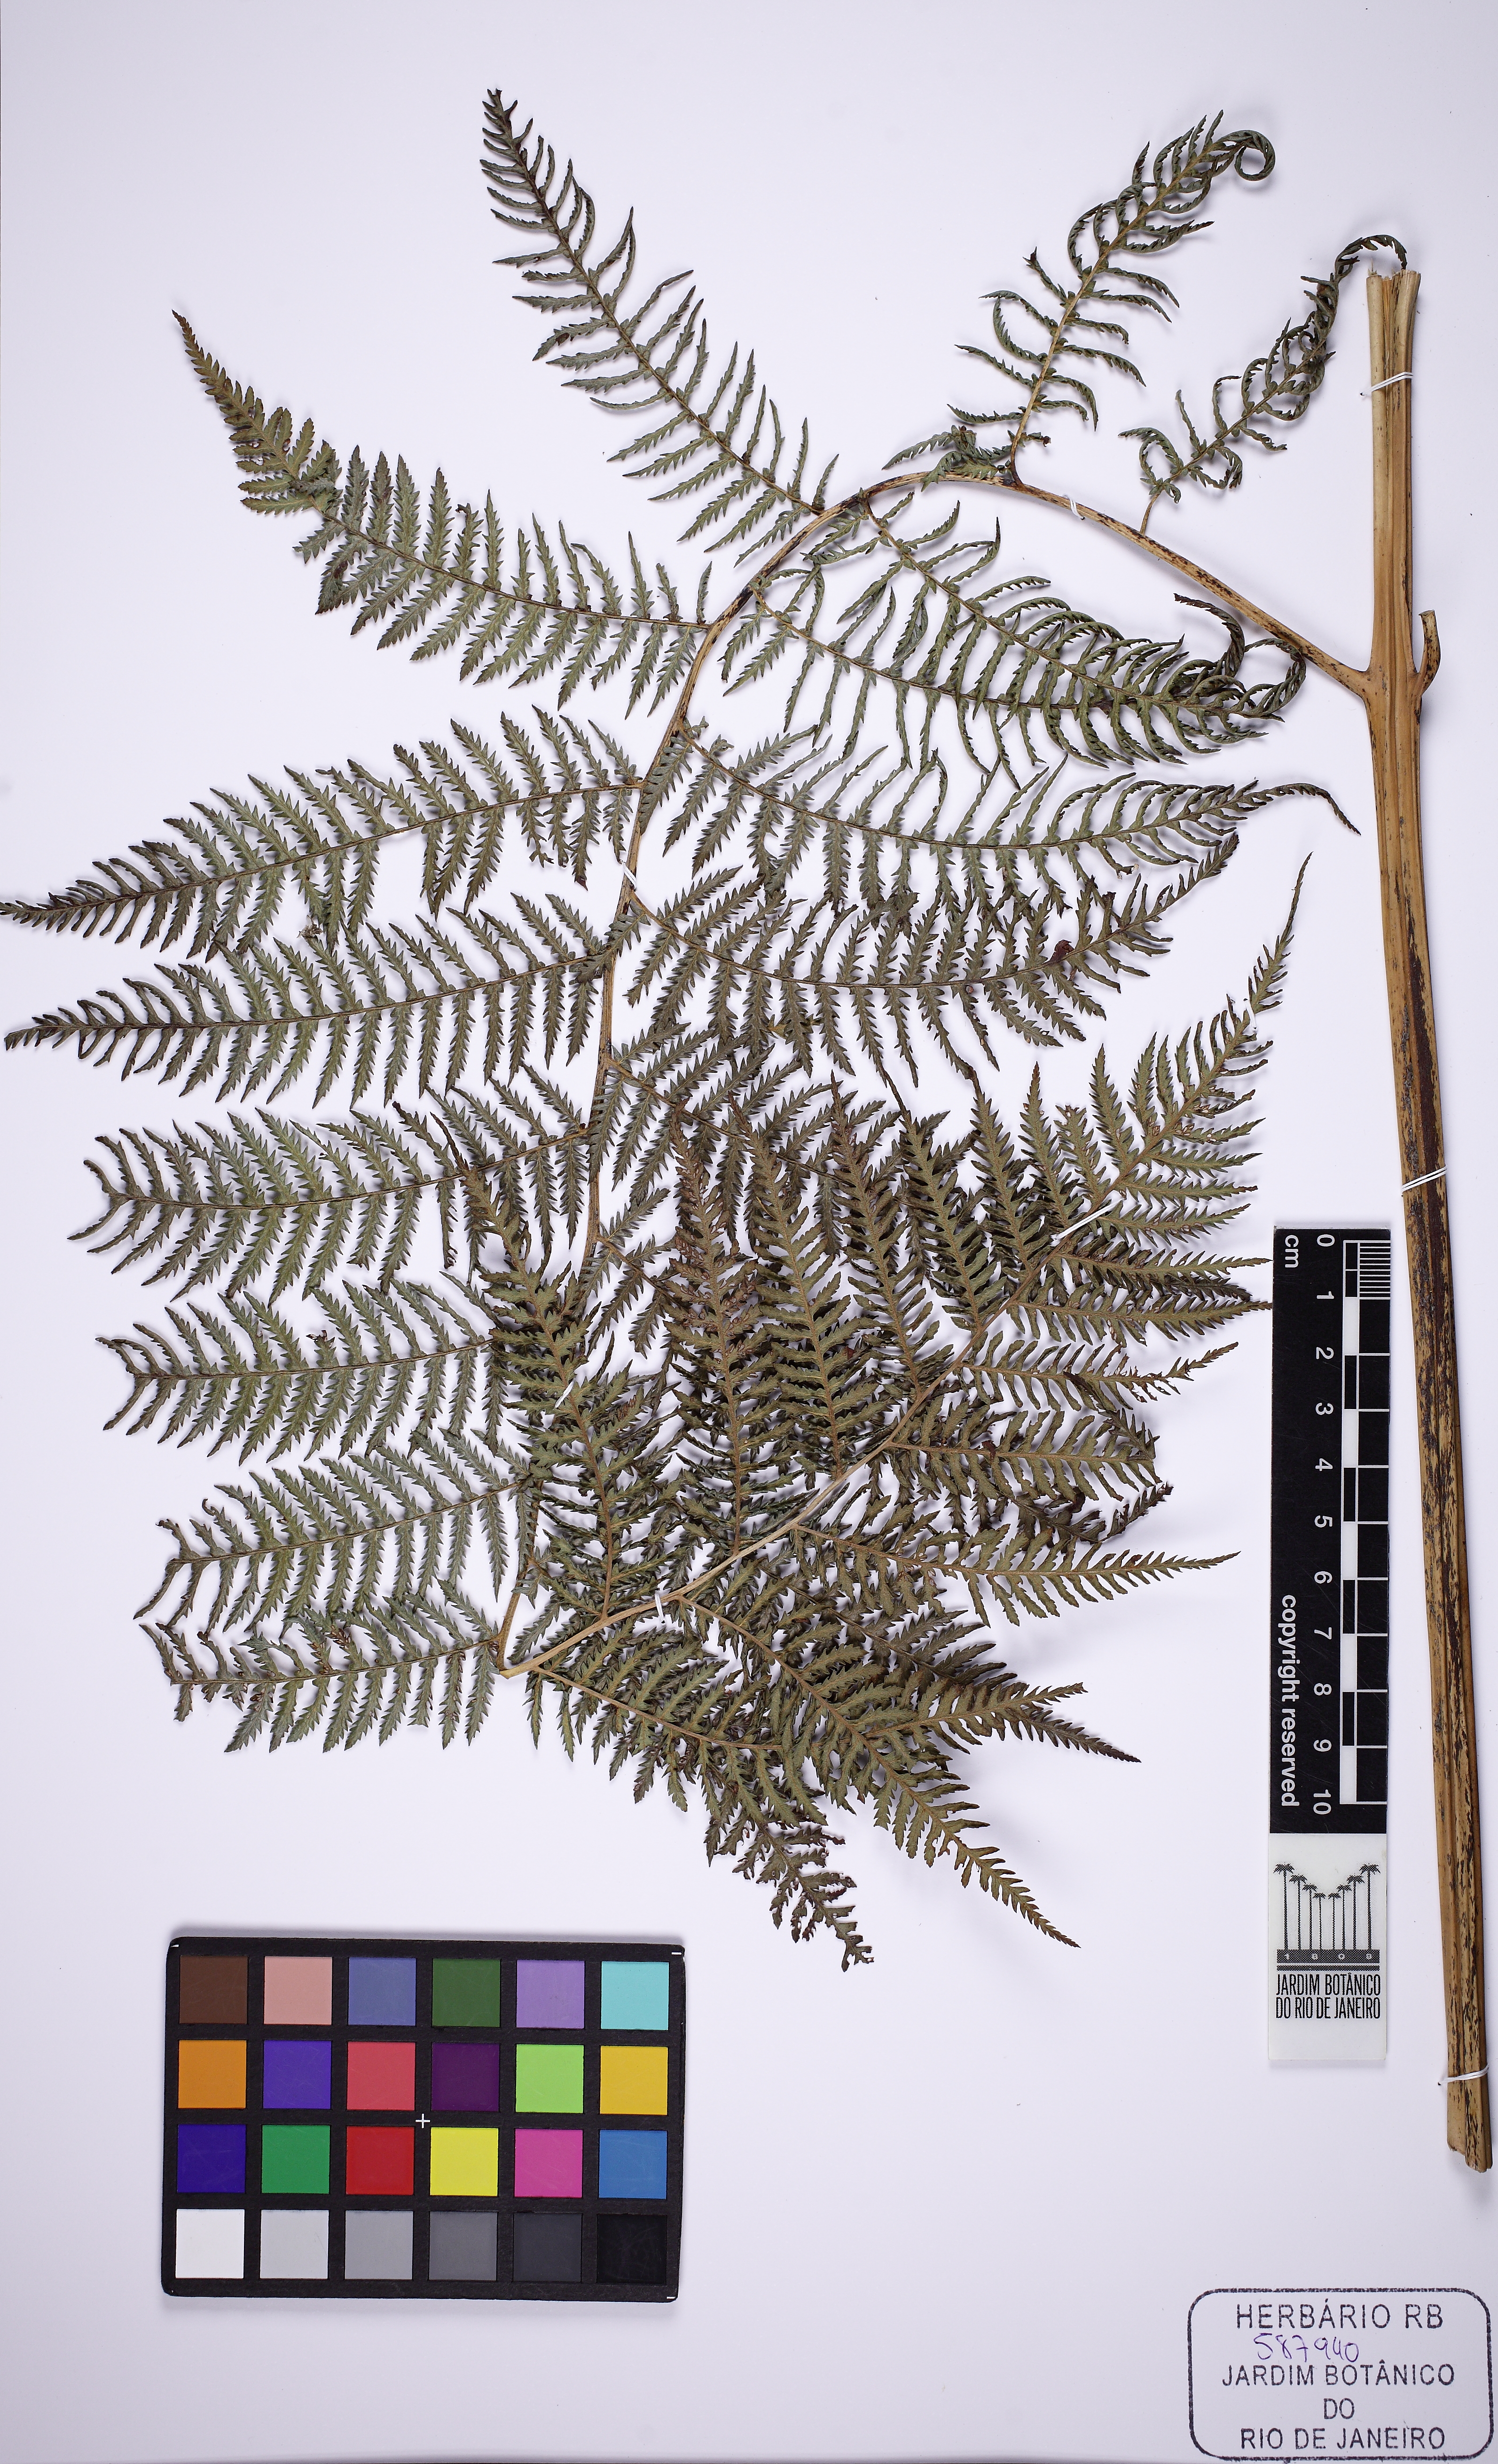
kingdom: Plantae
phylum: Tracheophyta
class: Polypodiopsida
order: Cyatheales
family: Dicksoniaceae
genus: Lophosoria
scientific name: Lophosoria quadripinnata
